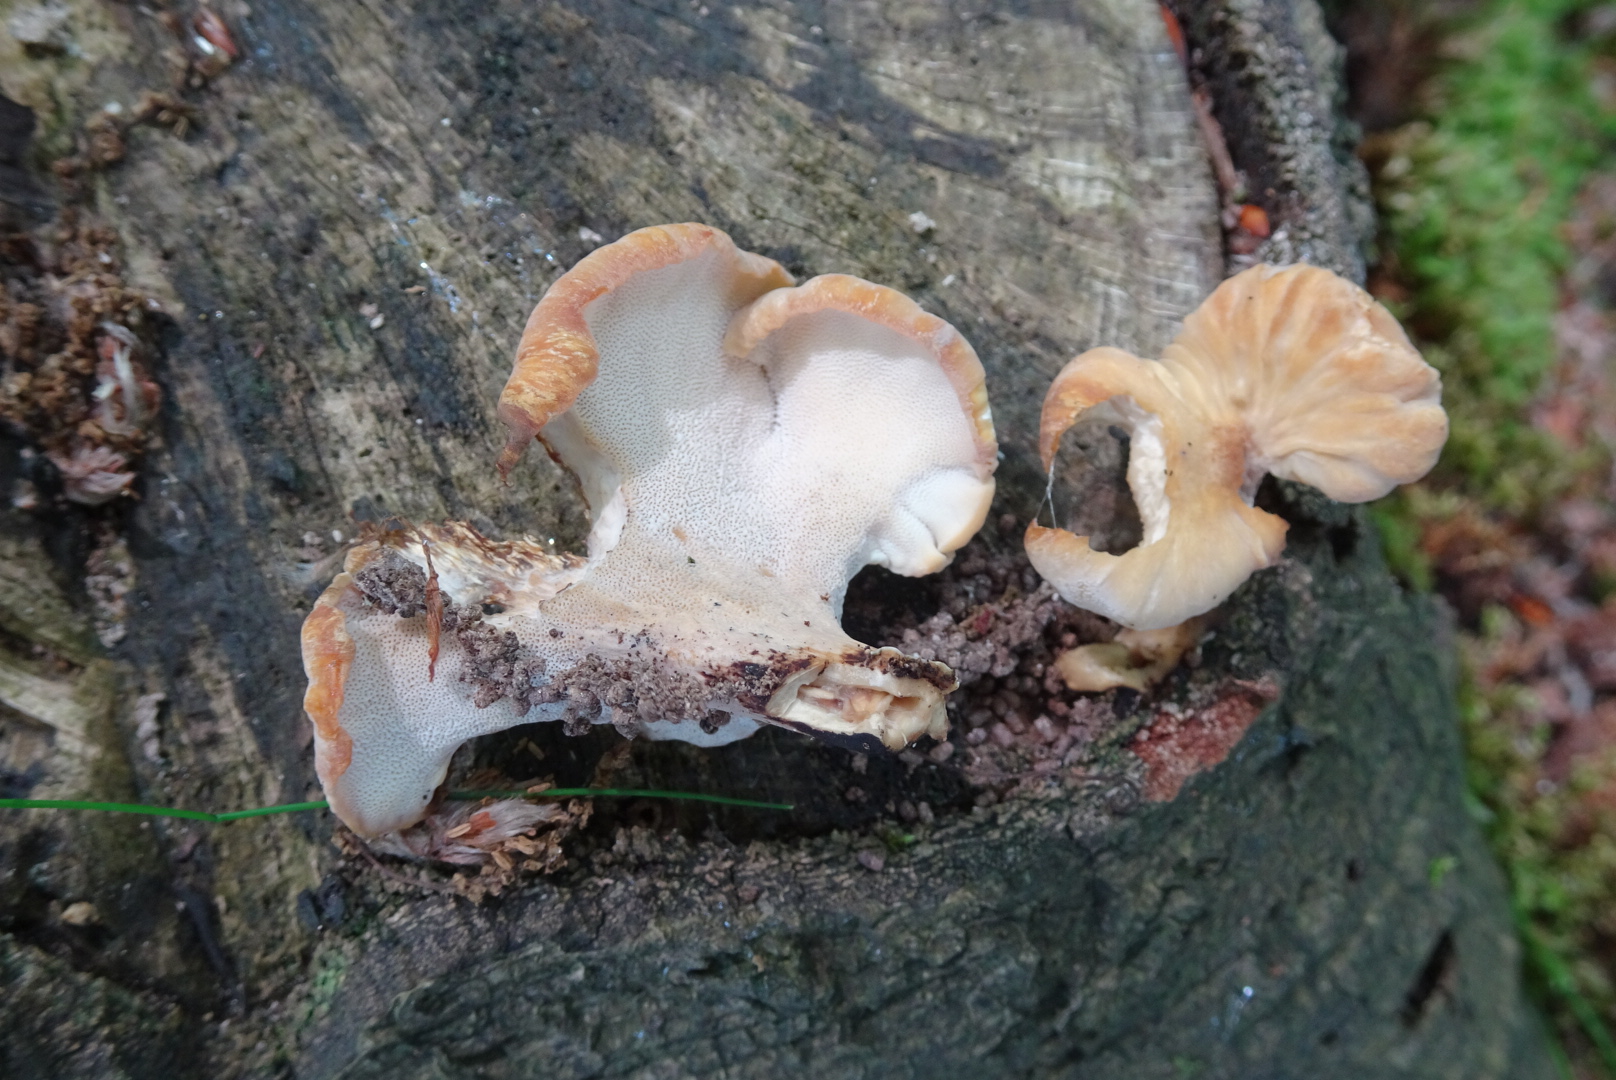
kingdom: Fungi
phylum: Basidiomycota
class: Agaricomycetes
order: Polyporales
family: Polyporaceae
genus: Cerioporus
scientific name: Cerioporus varius
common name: foranderlig stilkporesvamp
